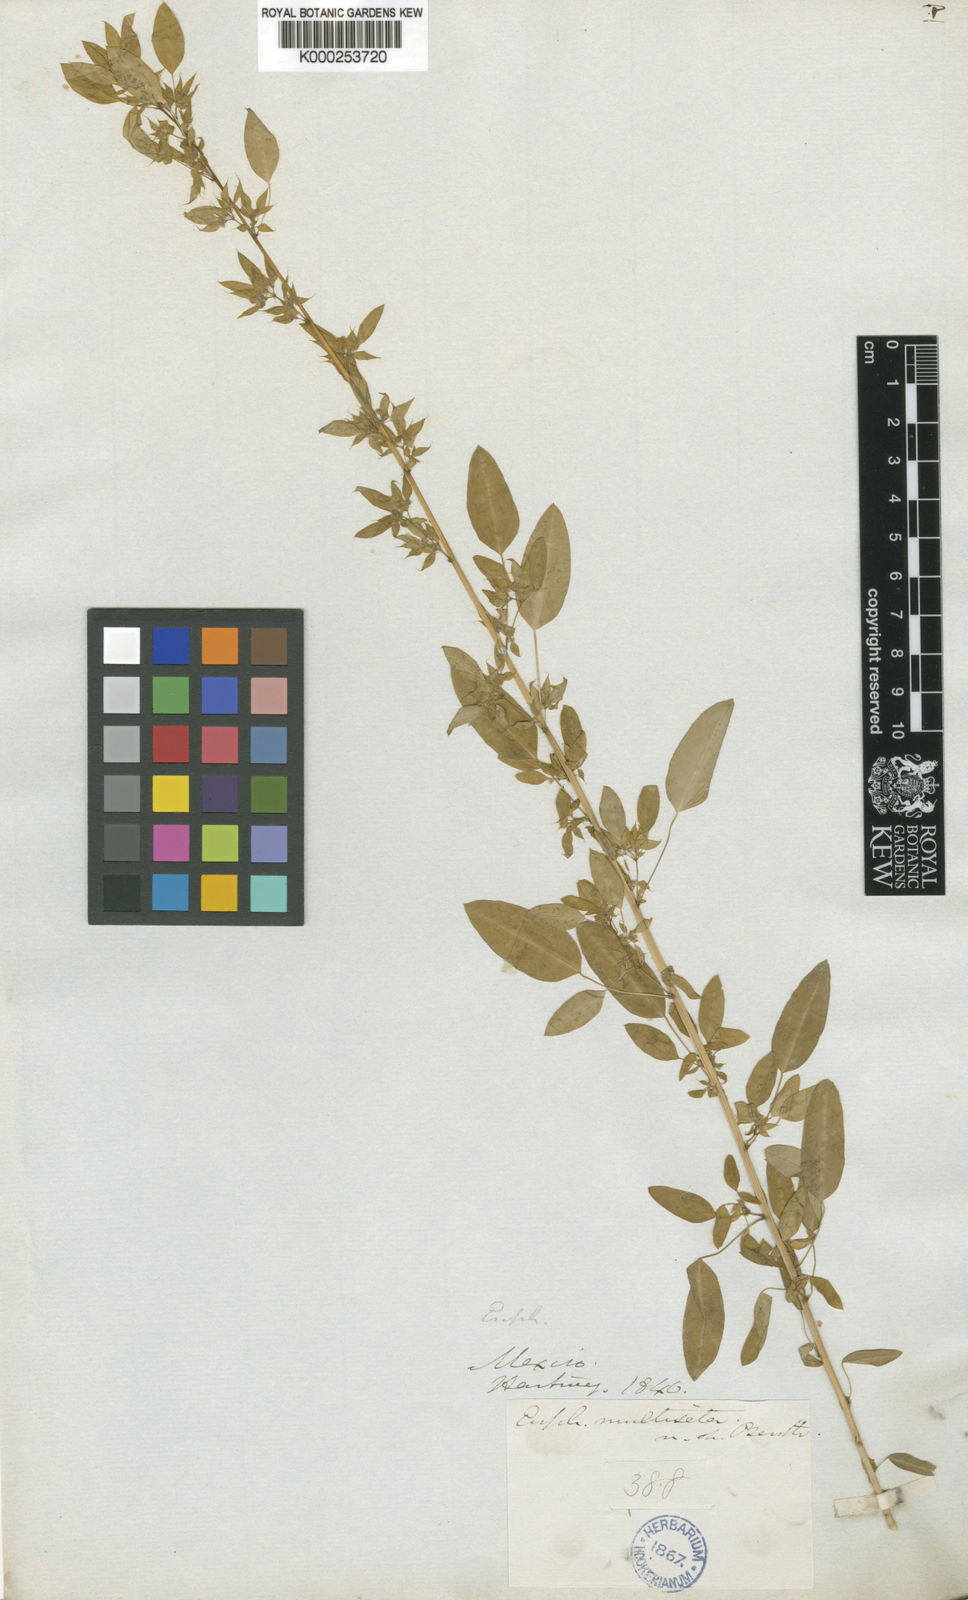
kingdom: Plantae
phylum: Tracheophyta
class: Magnoliopsida
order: Malpighiales
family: Euphorbiaceae
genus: Euphorbia
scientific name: Euphorbia multiseta
